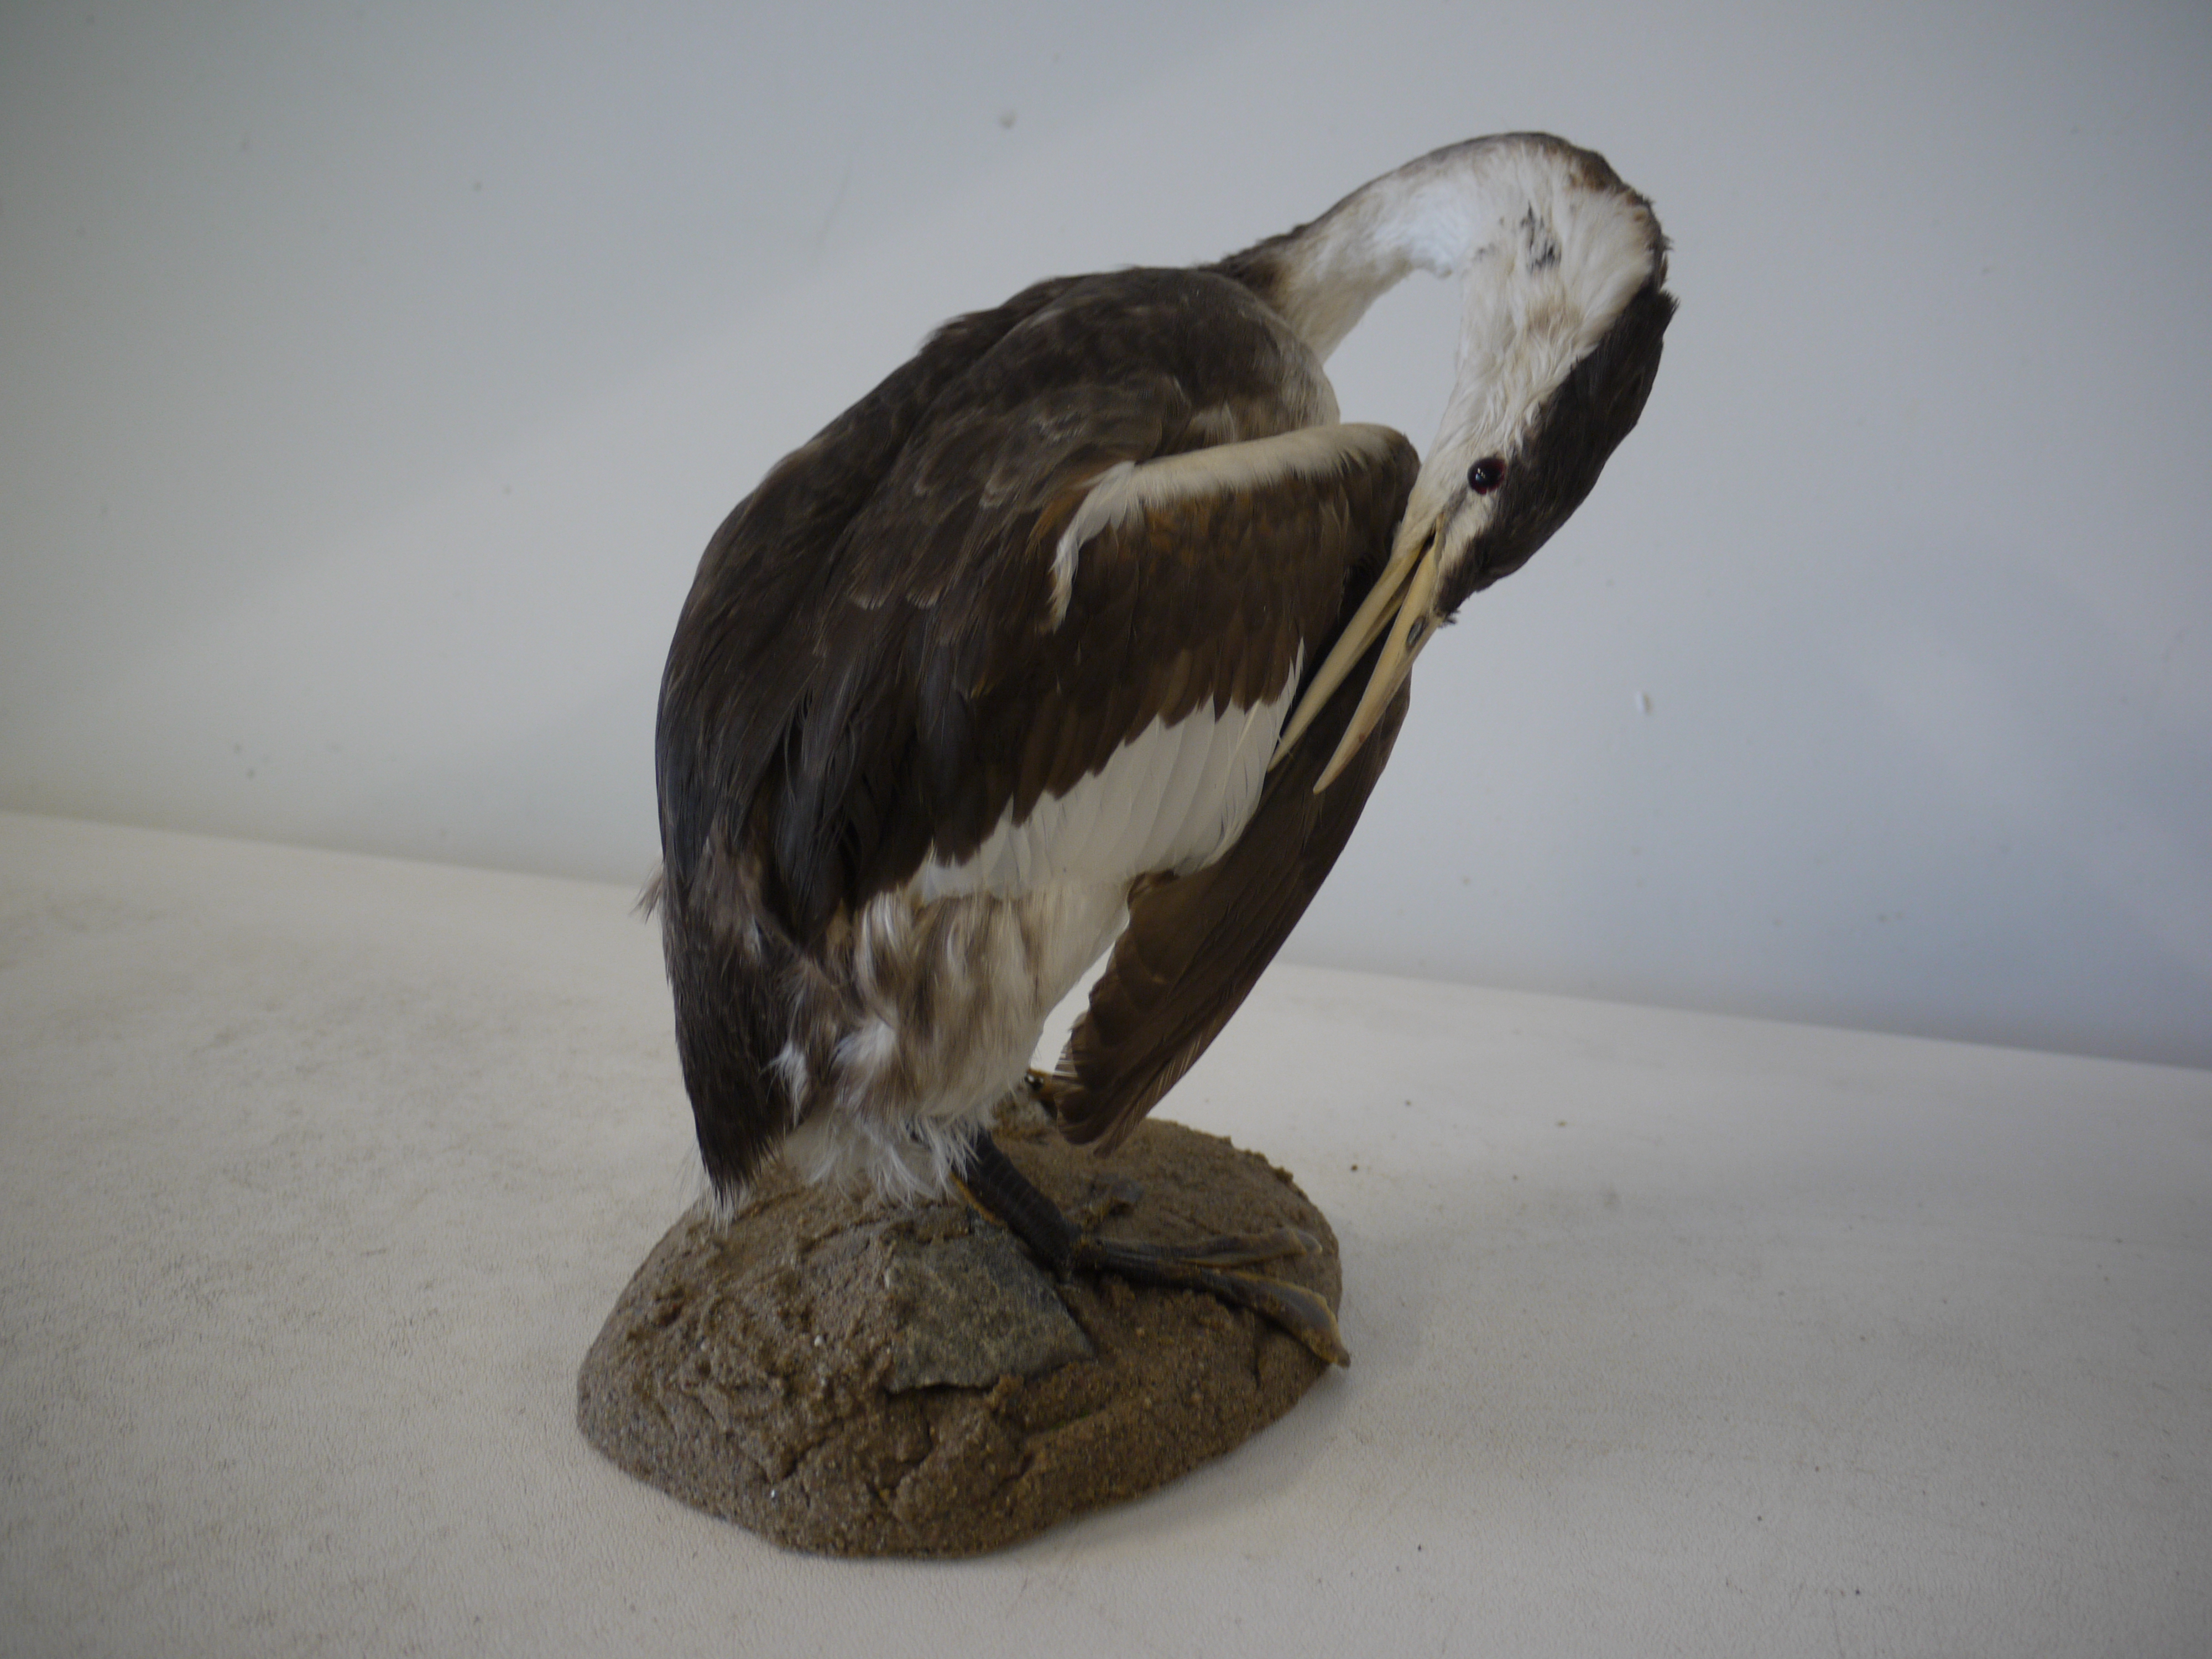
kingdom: Animalia
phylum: Chordata
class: Aves
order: Podicipediformes
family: Podicipedidae
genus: Podiceps
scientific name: Podiceps cristatus
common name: Great crested grebe
